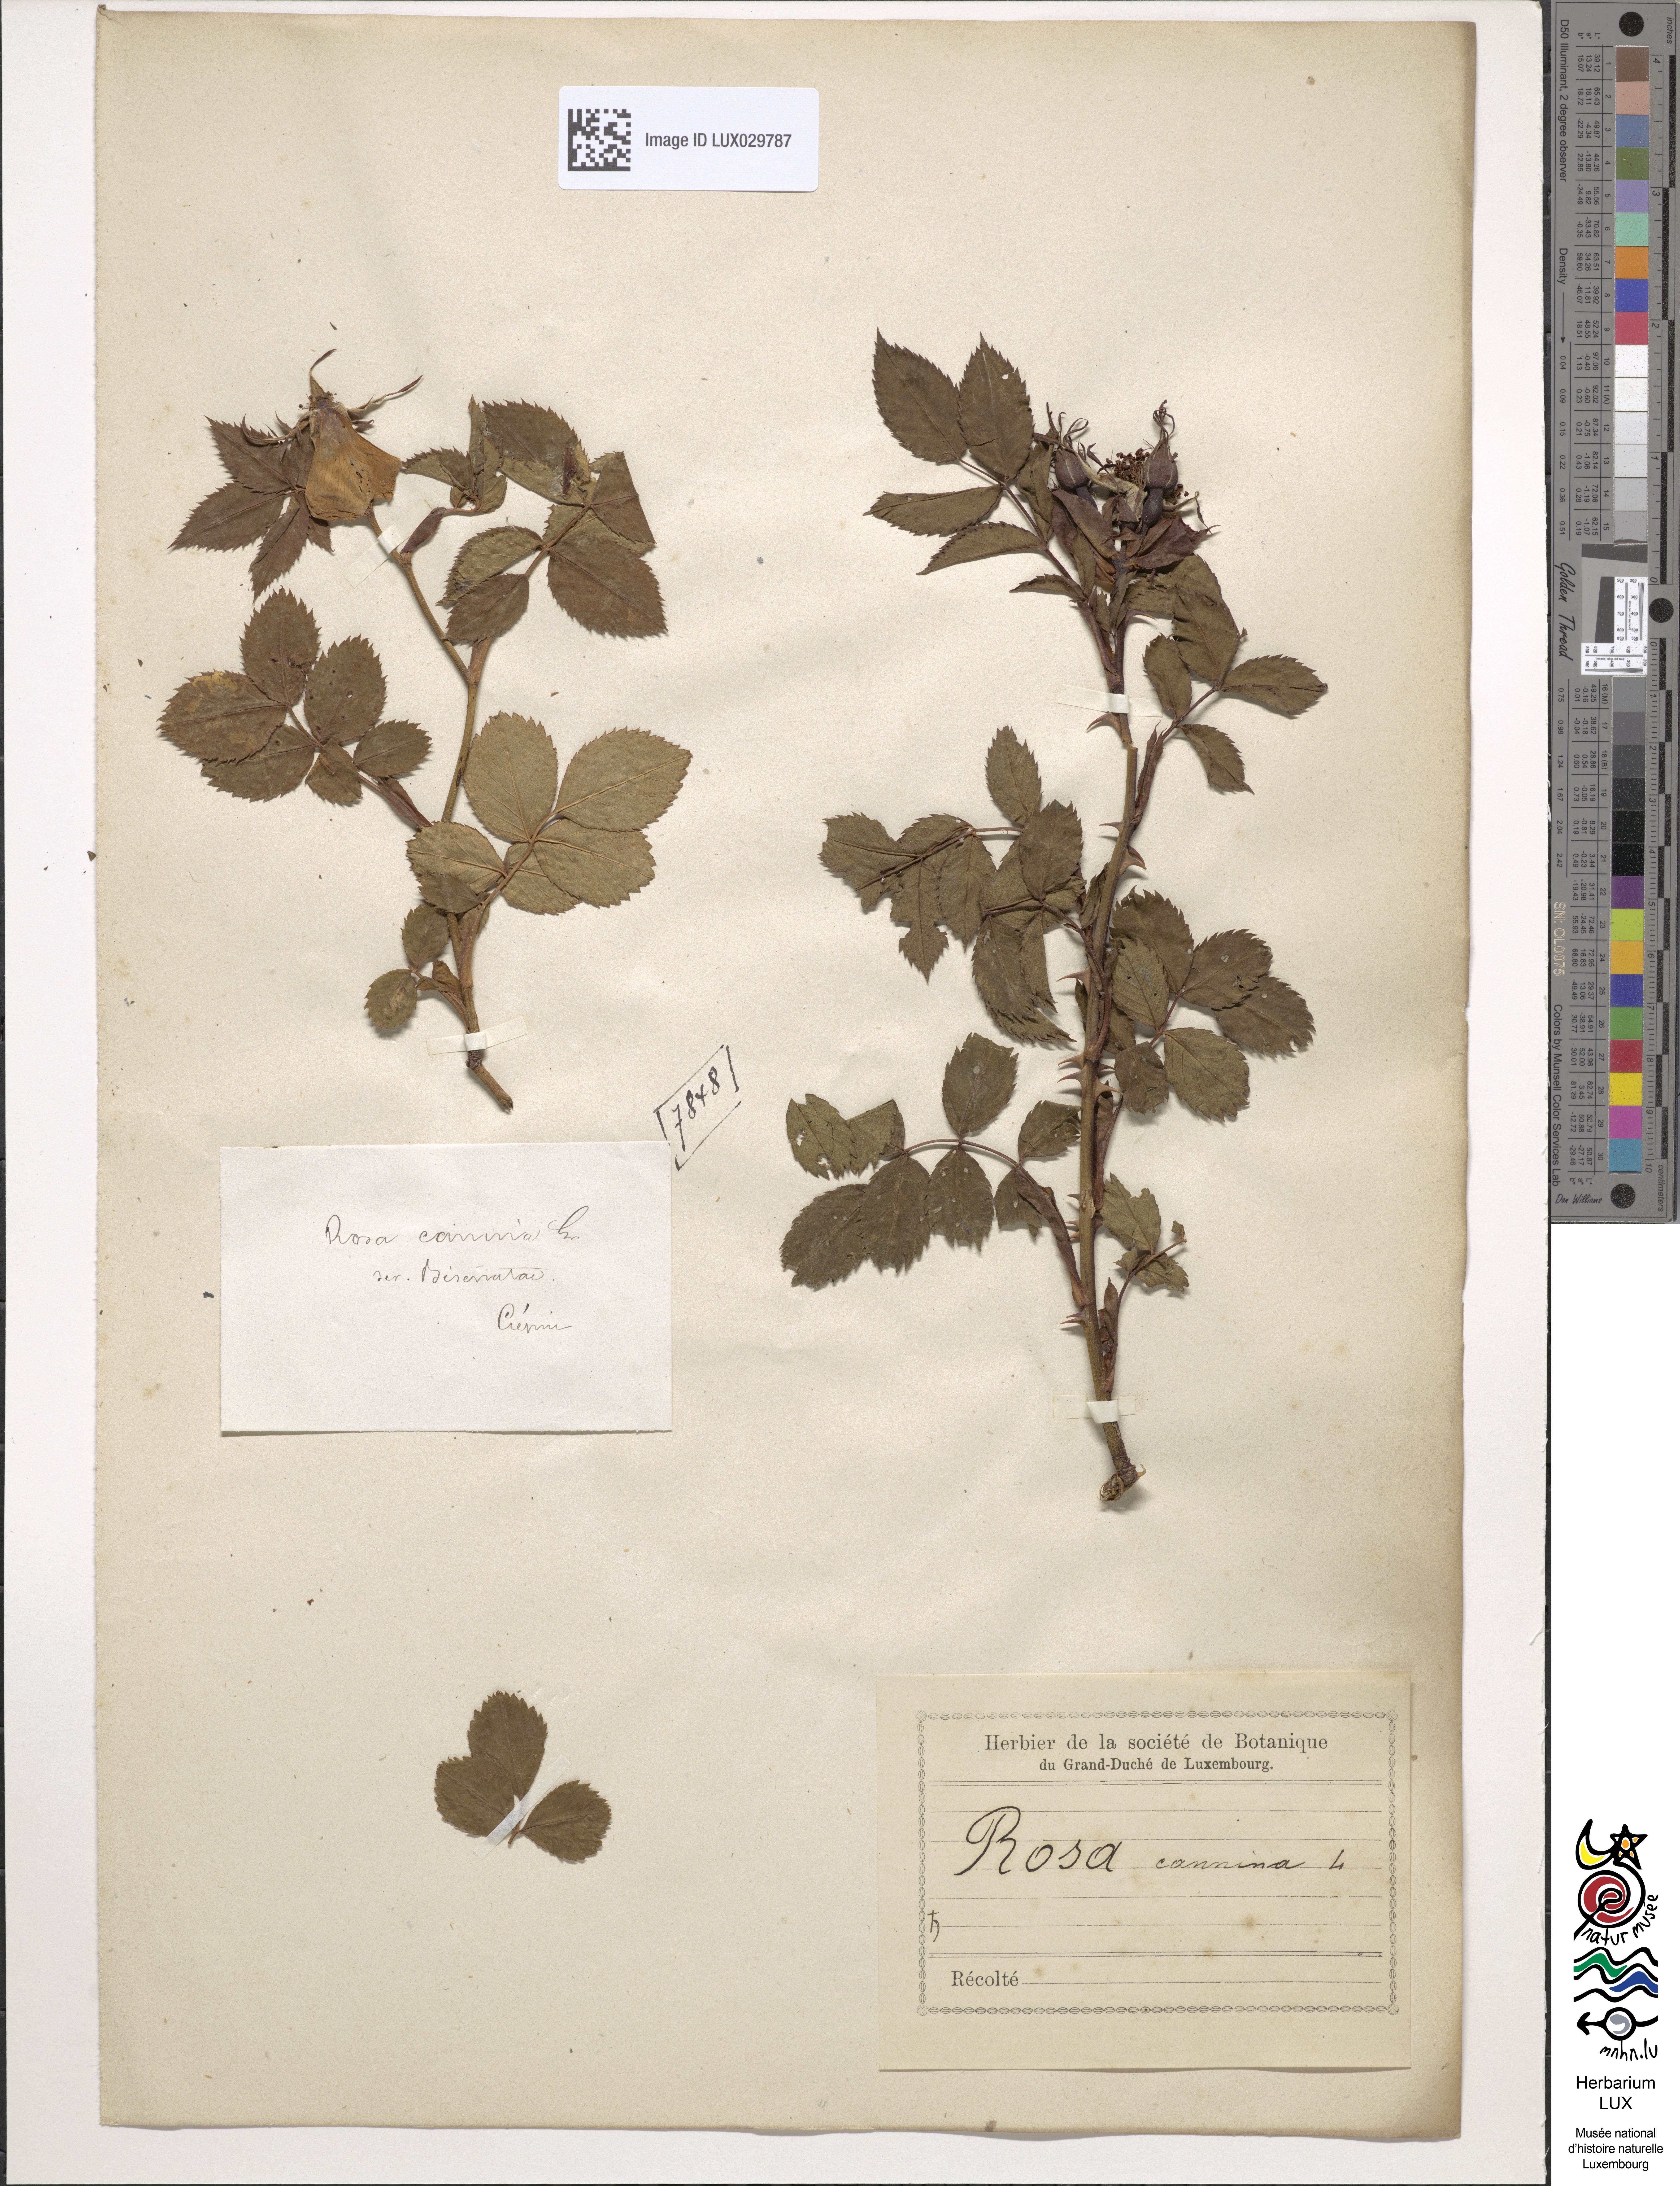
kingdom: Plantae
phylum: Tracheophyta
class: Magnoliopsida
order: Rosales
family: Rosaceae
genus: Rosa
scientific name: Rosa canina
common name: Dog rose
